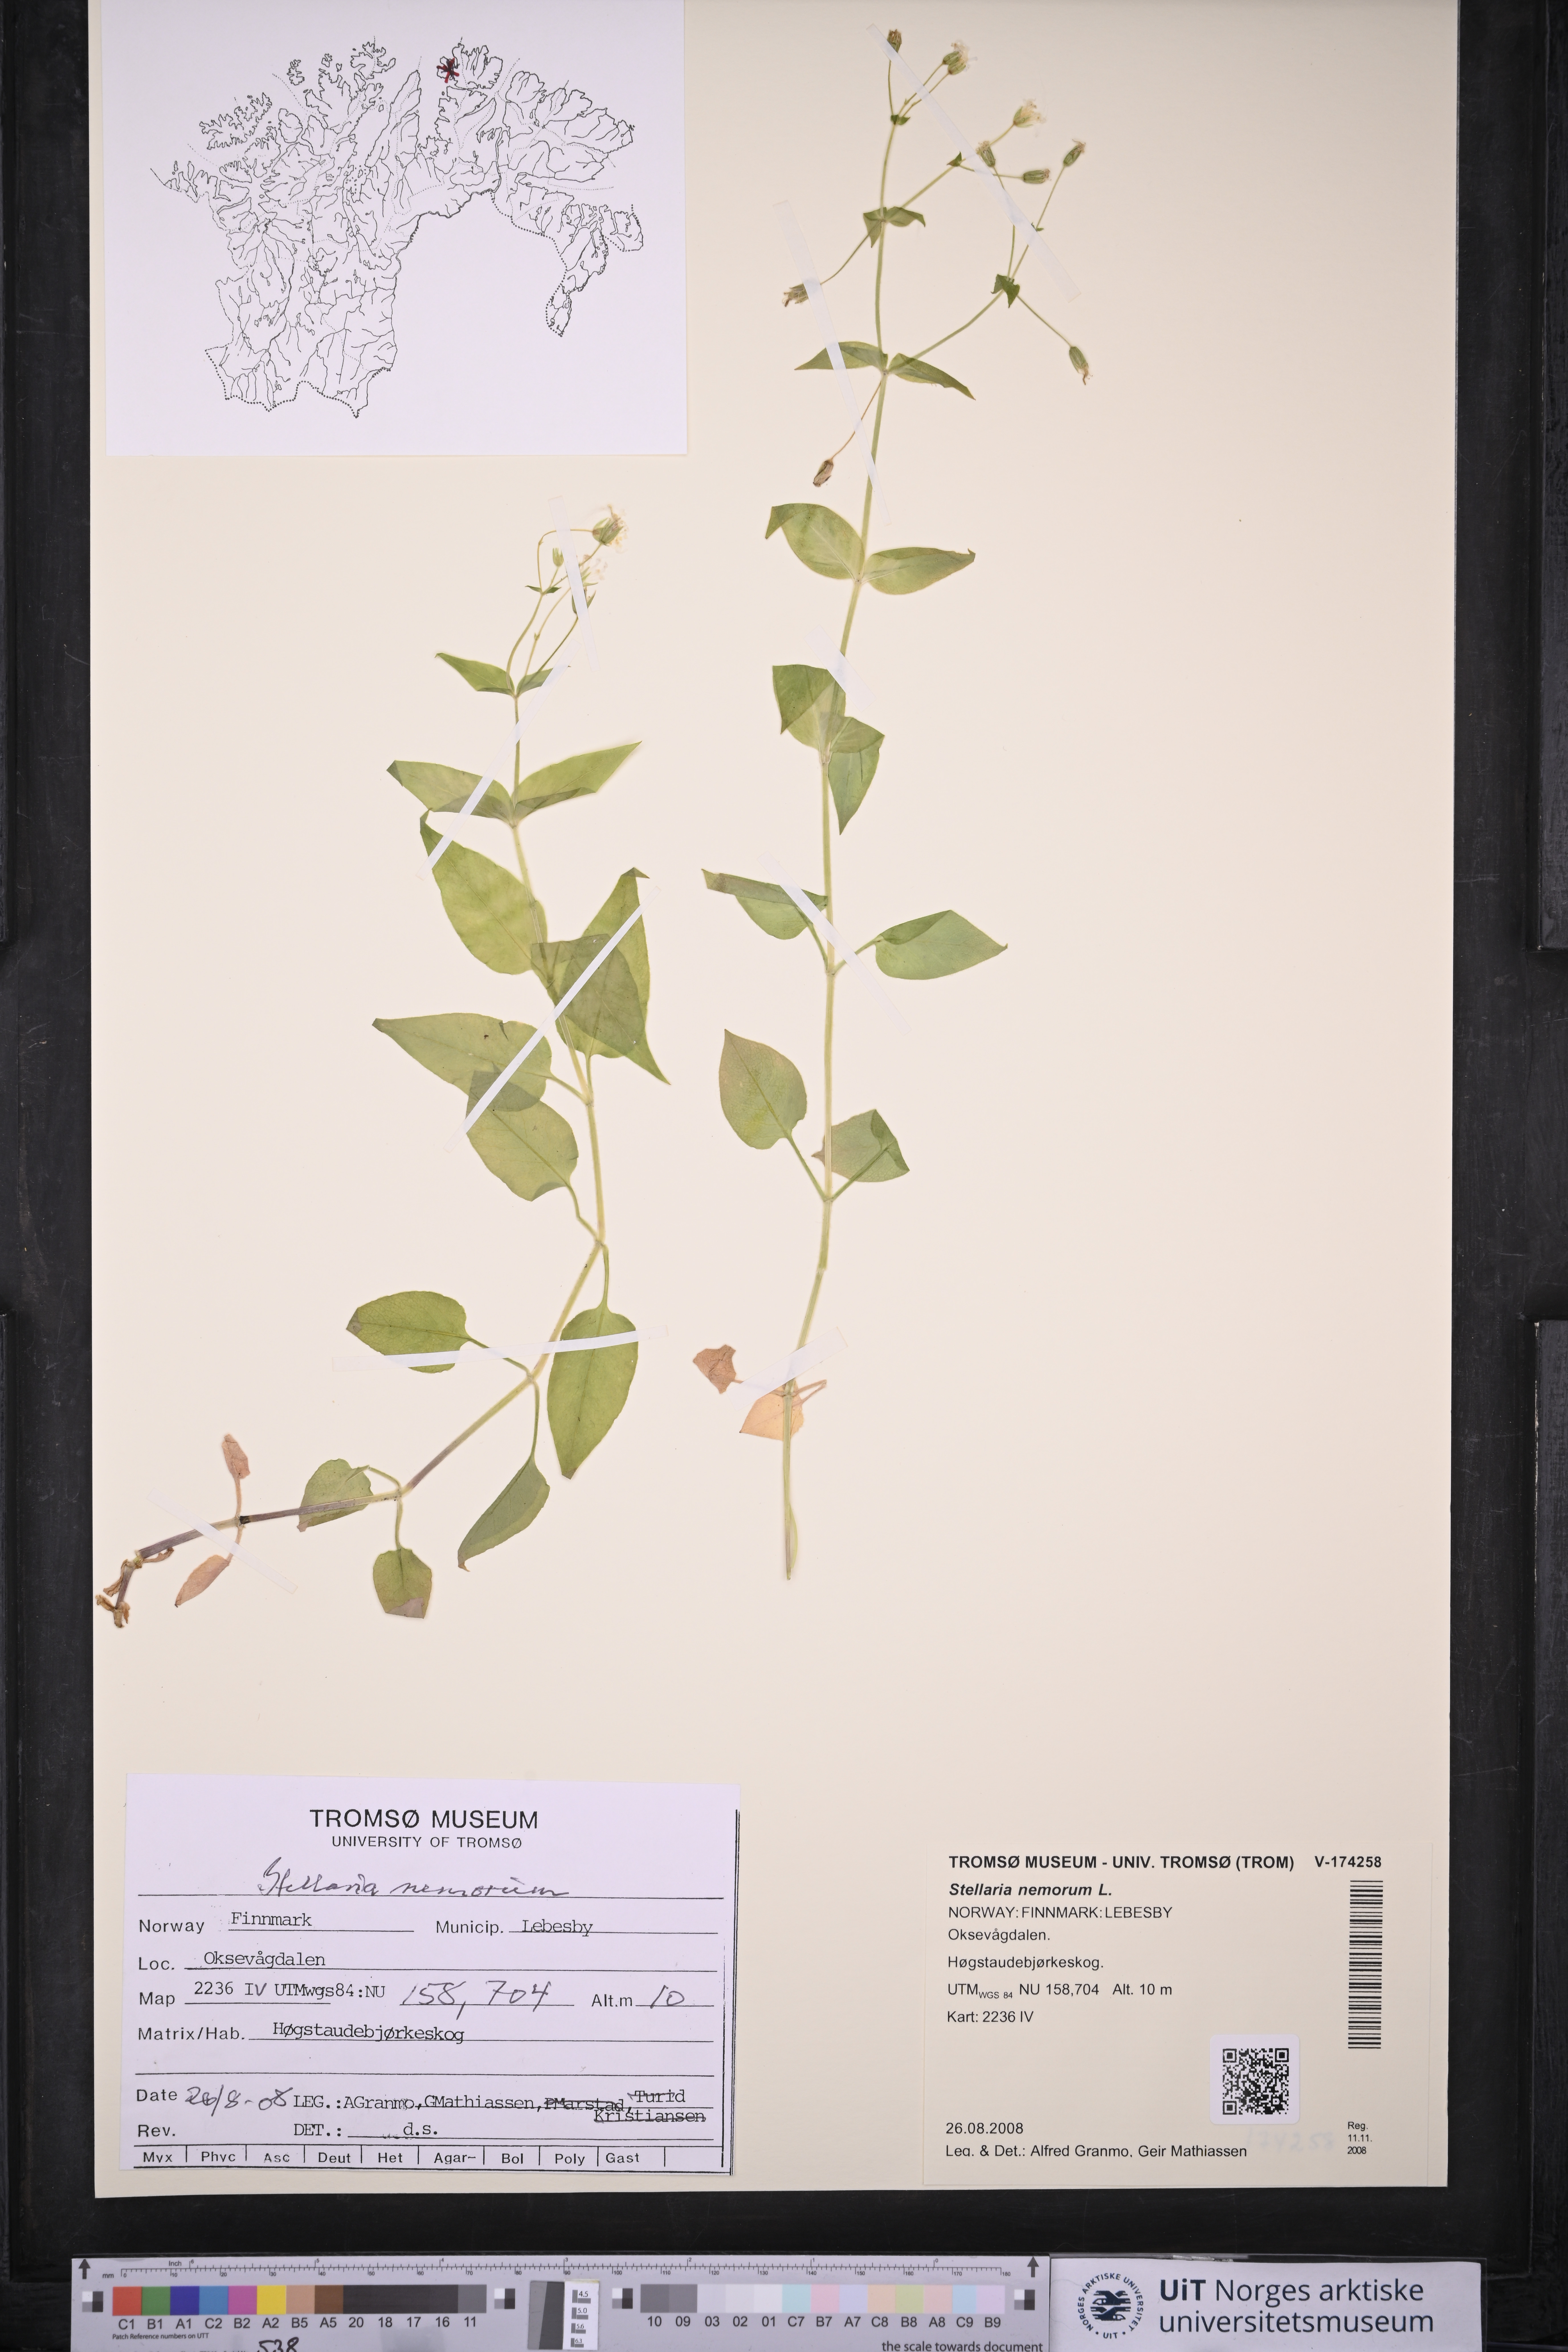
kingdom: Plantae
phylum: Tracheophyta
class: Magnoliopsida
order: Caryophyllales
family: Caryophyllaceae
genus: Stellaria
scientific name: Stellaria nemorum
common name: Wood stitchwort
